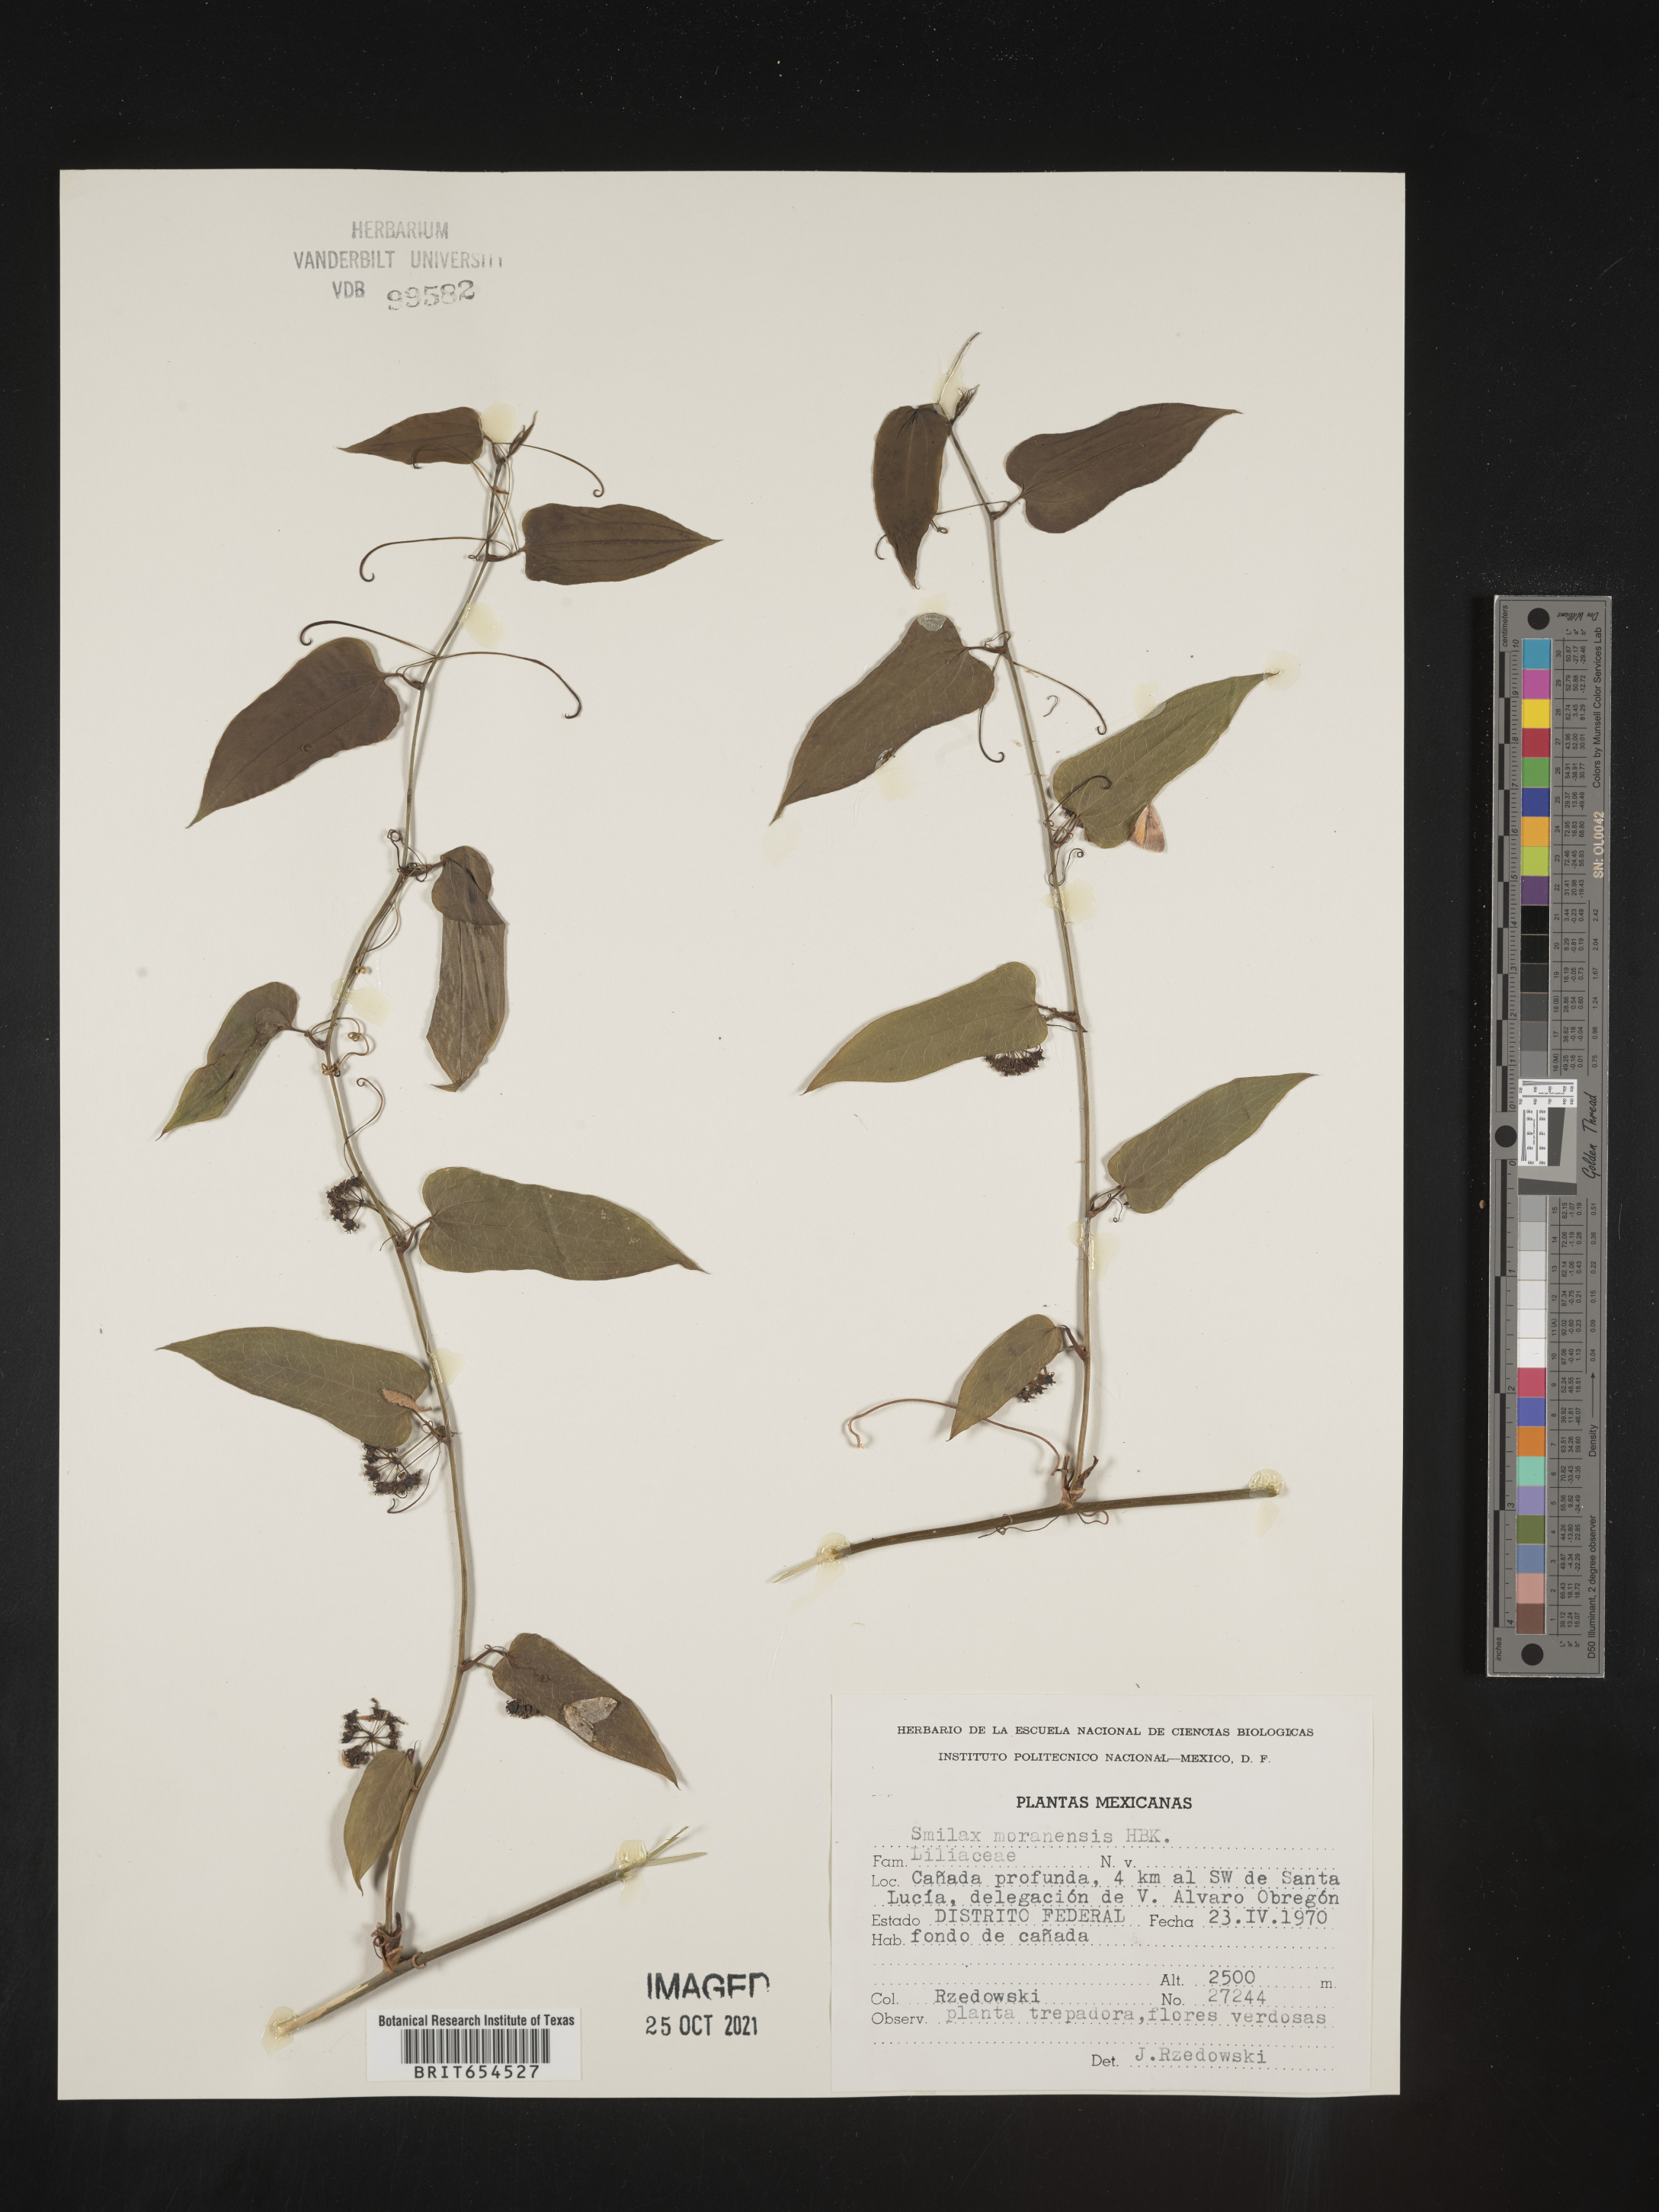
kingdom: Plantae
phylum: Tracheophyta
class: Liliopsida
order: Liliales
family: Smilacaceae
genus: Smilax
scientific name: Smilax
